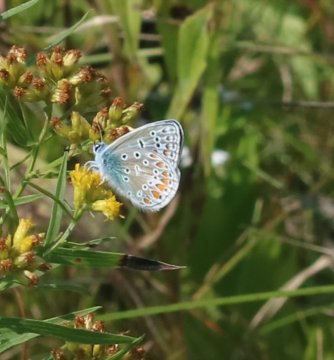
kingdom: Animalia
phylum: Arthropoda
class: Insecta
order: Lepidoptera
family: Lycaenidae
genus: Polyommatus
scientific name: Polyommatus icarus
